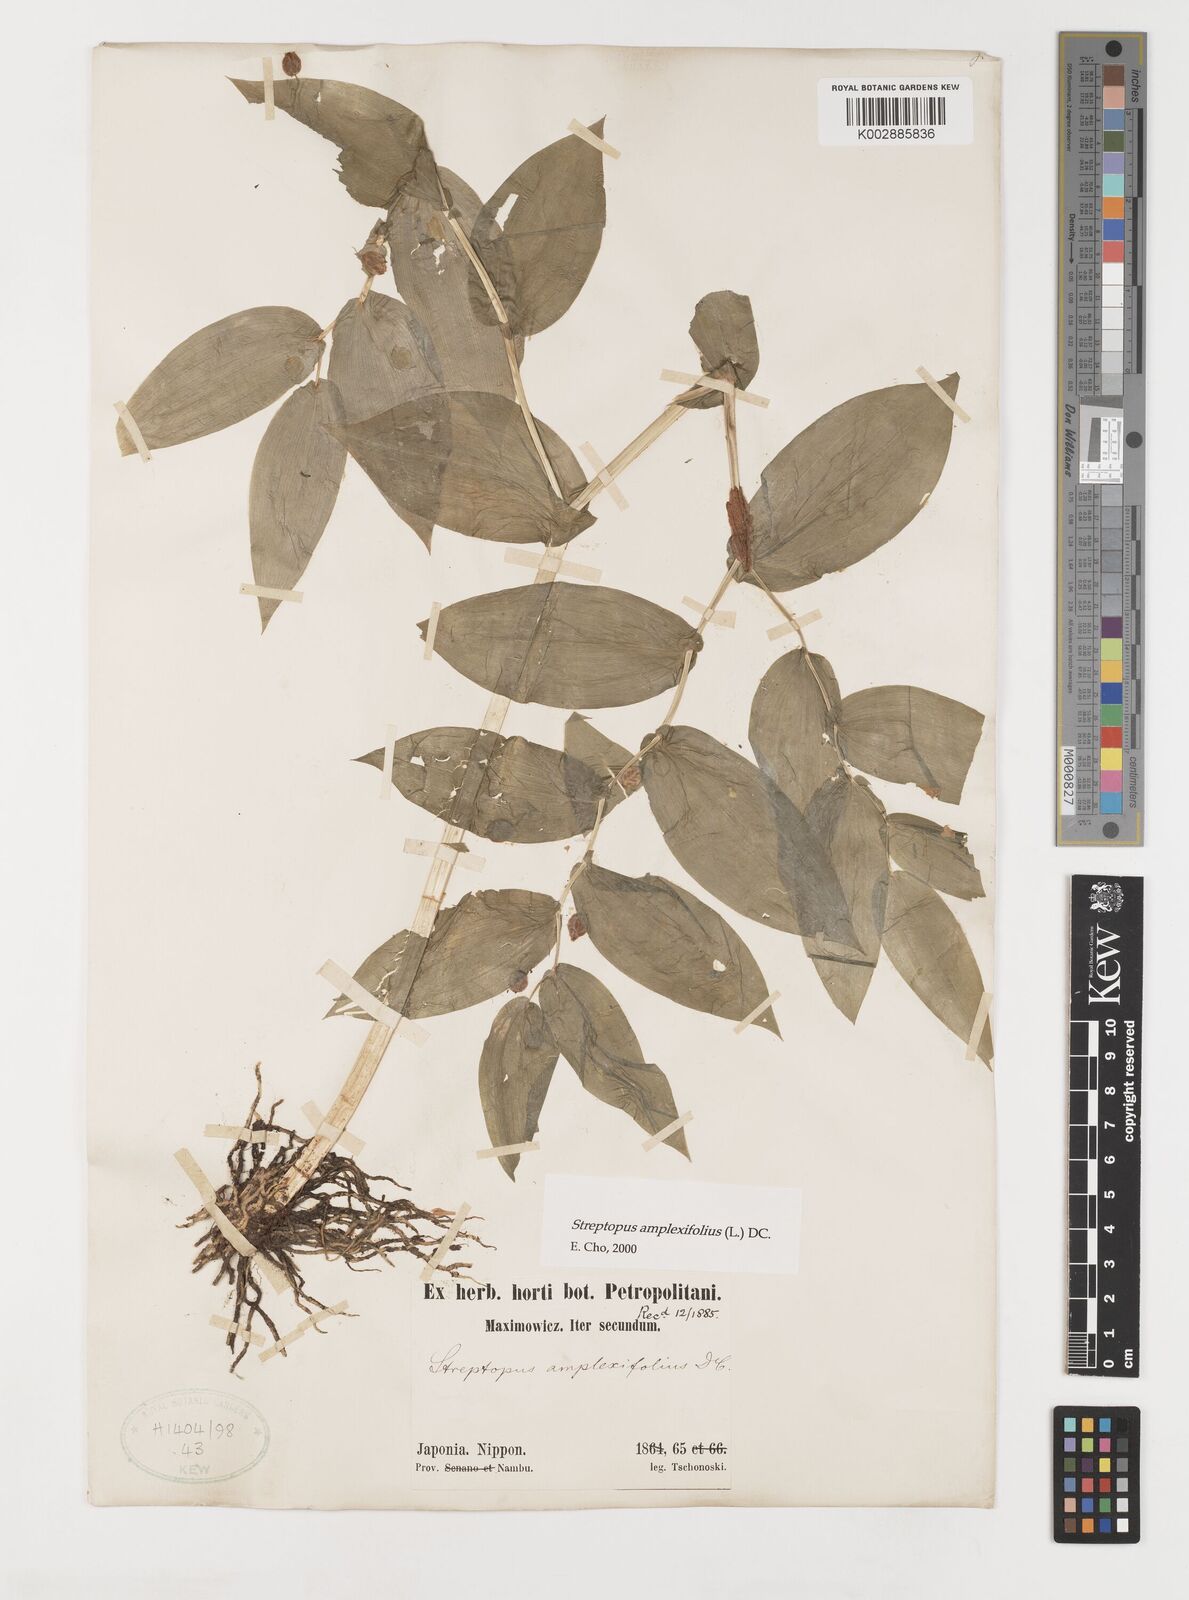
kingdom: Plantae
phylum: Tracheophyta
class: Liliopsida
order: Liliales
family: Liliaceae
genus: Streptopus
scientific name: Streptopus amplexifolius
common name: Clasp twisted stalk
